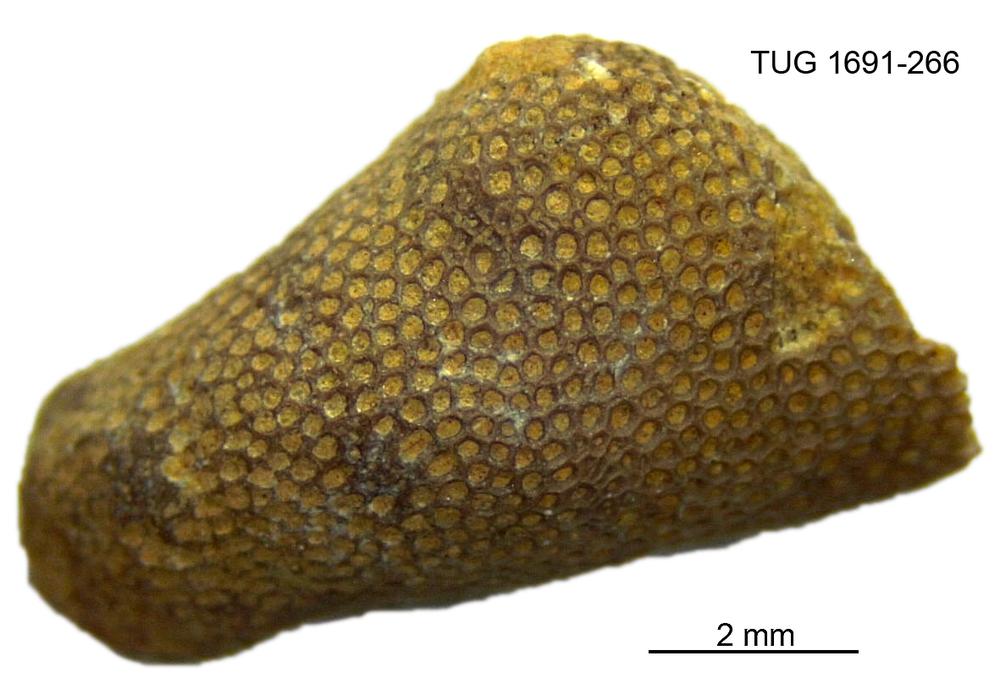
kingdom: Animalia
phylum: Bryozoa
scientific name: Bryozoa
